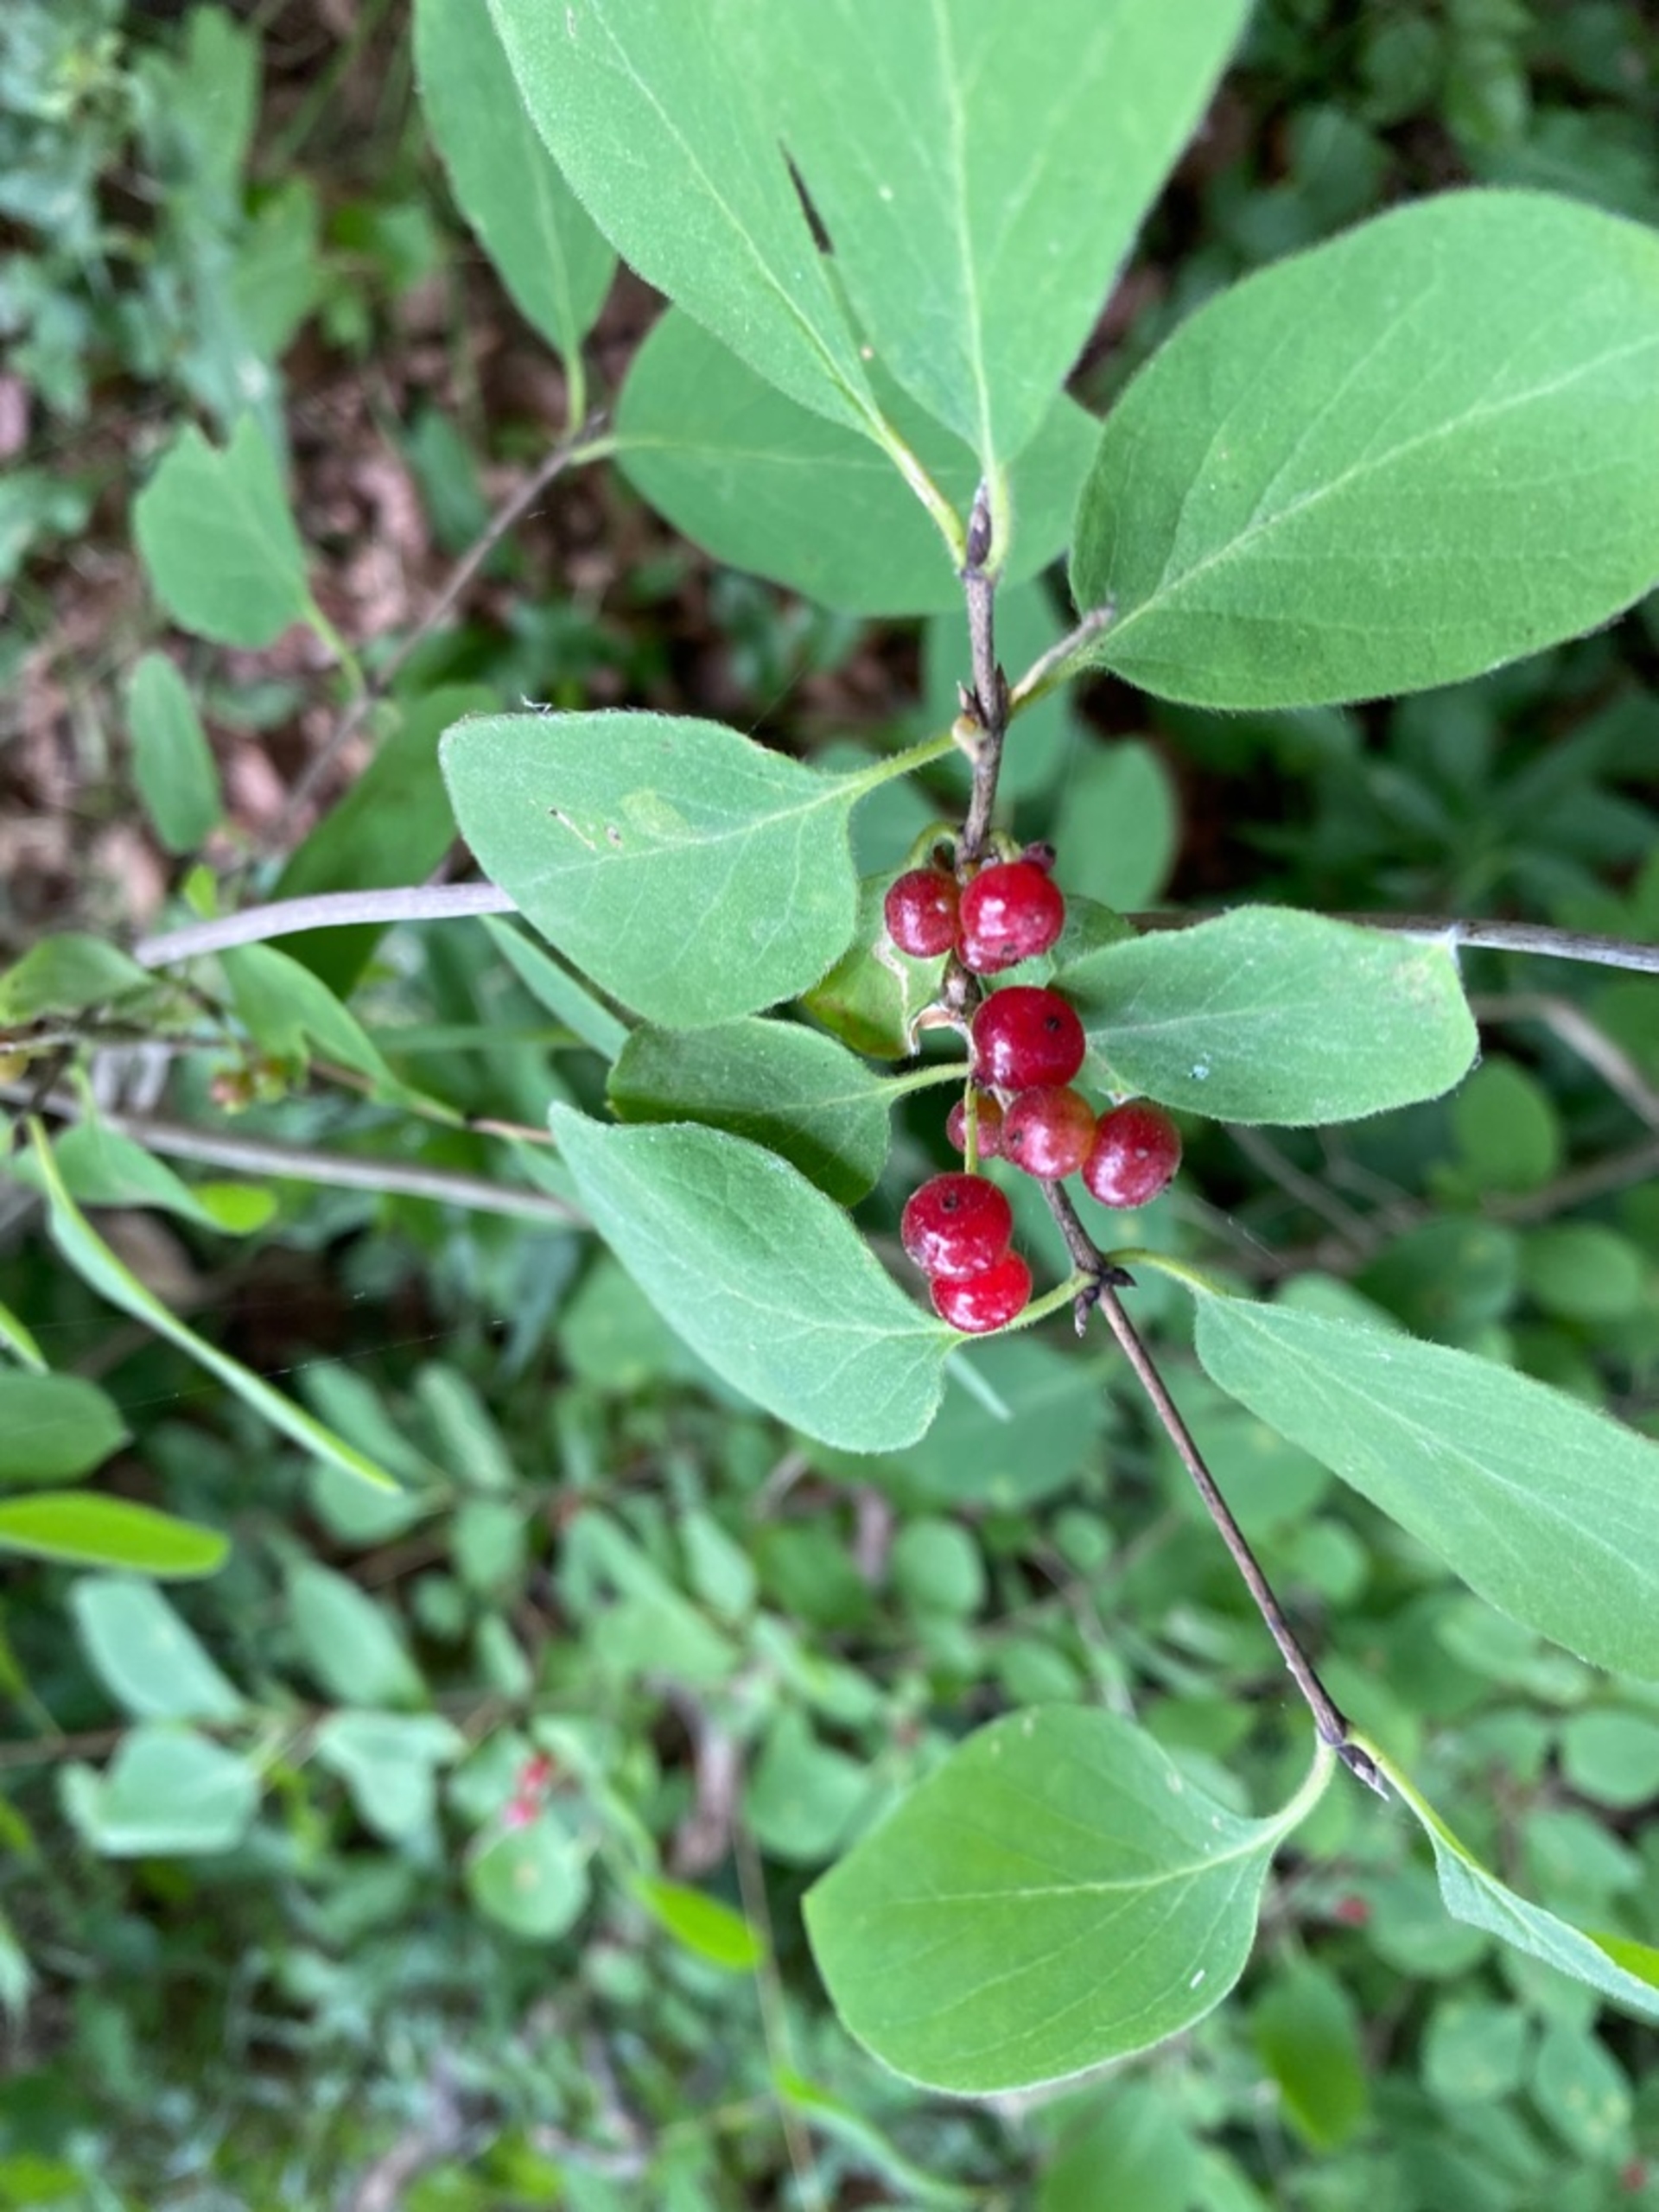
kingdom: Plantae
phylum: Tracheophyta
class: Magnoliopsida
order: Dipsacales
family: Caprifoliaceae
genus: Lonicera
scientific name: Lonicera xylosteum
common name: Dunet gedeblad
